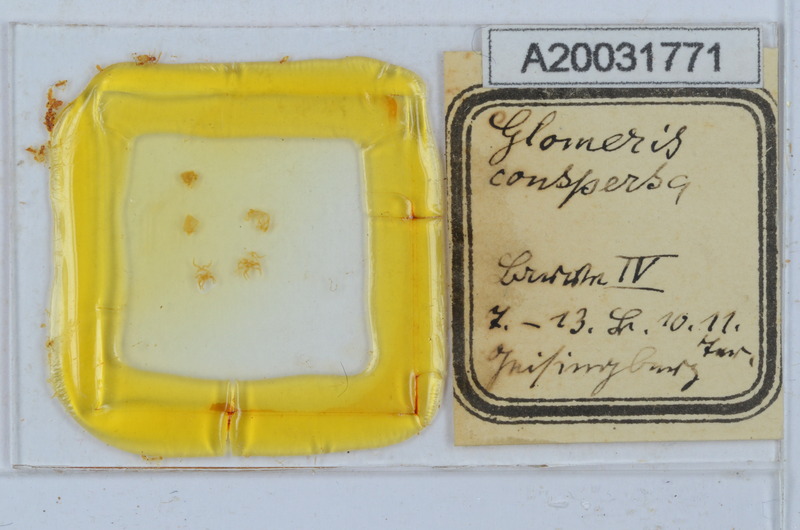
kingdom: Animalia
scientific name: Animalia
